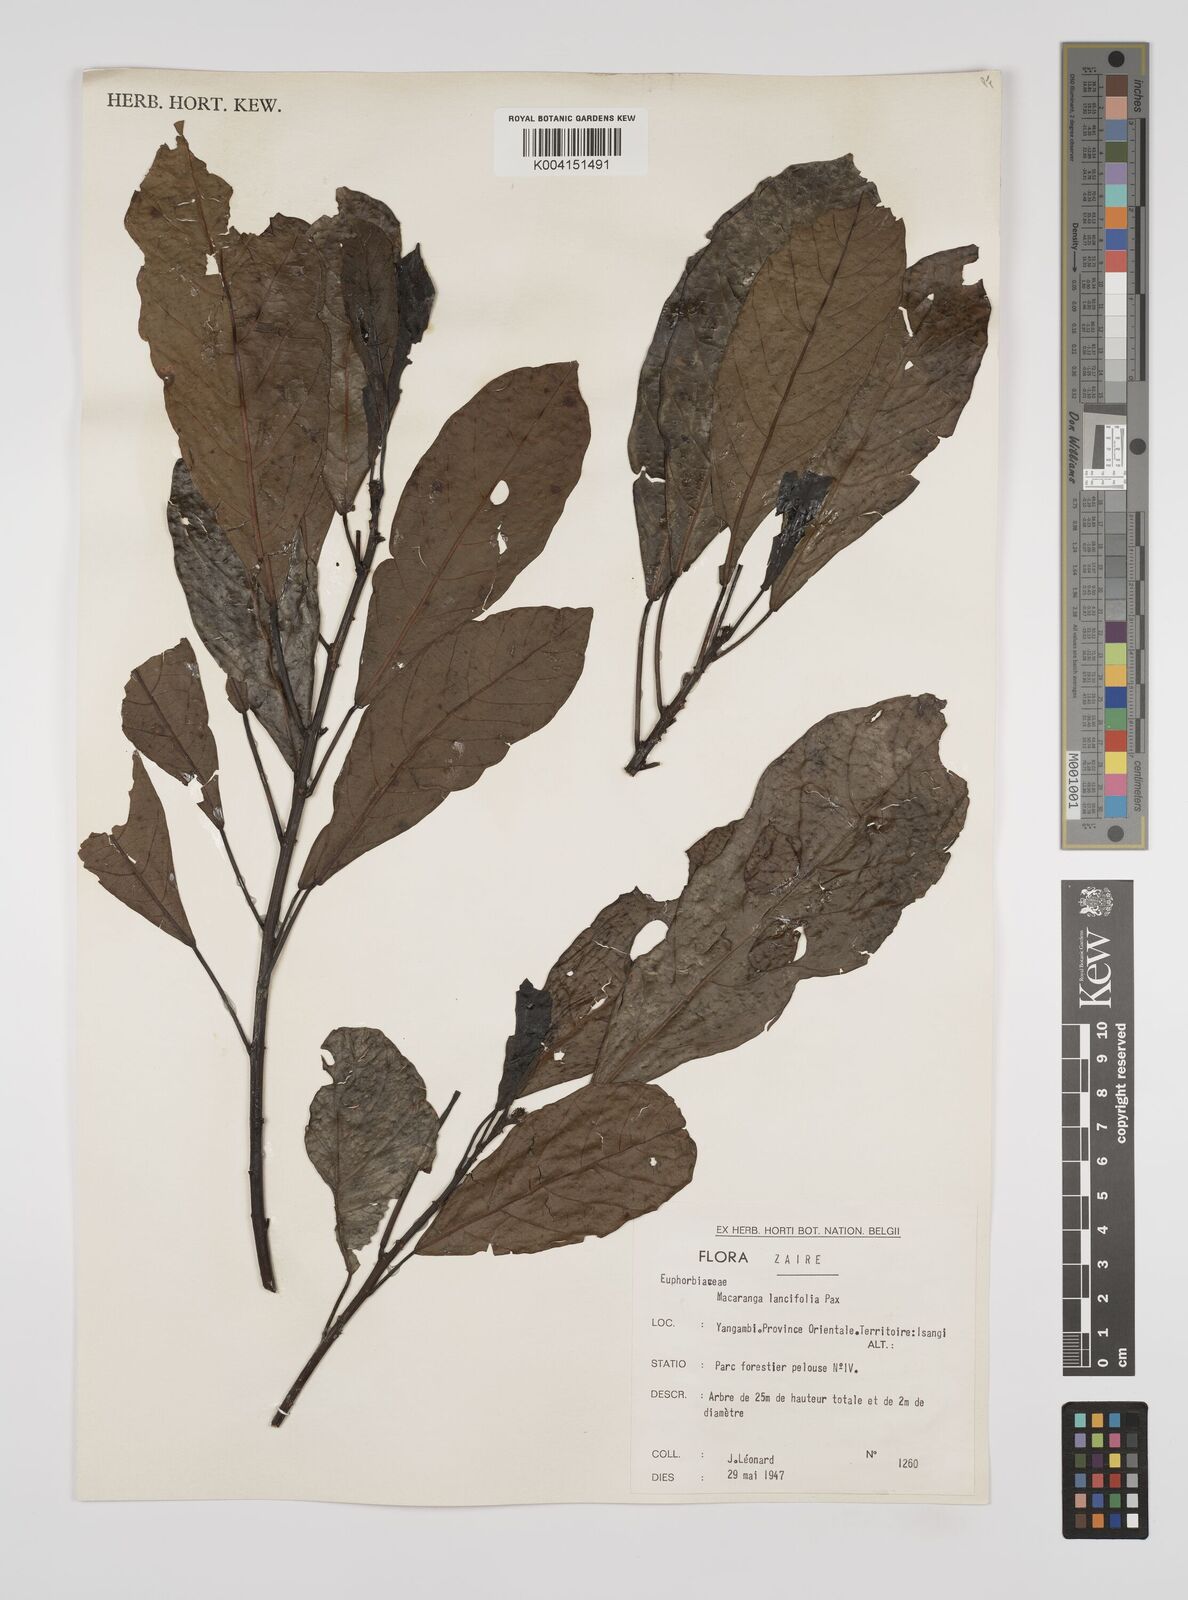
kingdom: Plantae
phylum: Tracheophyta
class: Magnoliopsida
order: Malpighiales
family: Euphorbiaceae
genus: Macaranga
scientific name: Macaranga barteri
